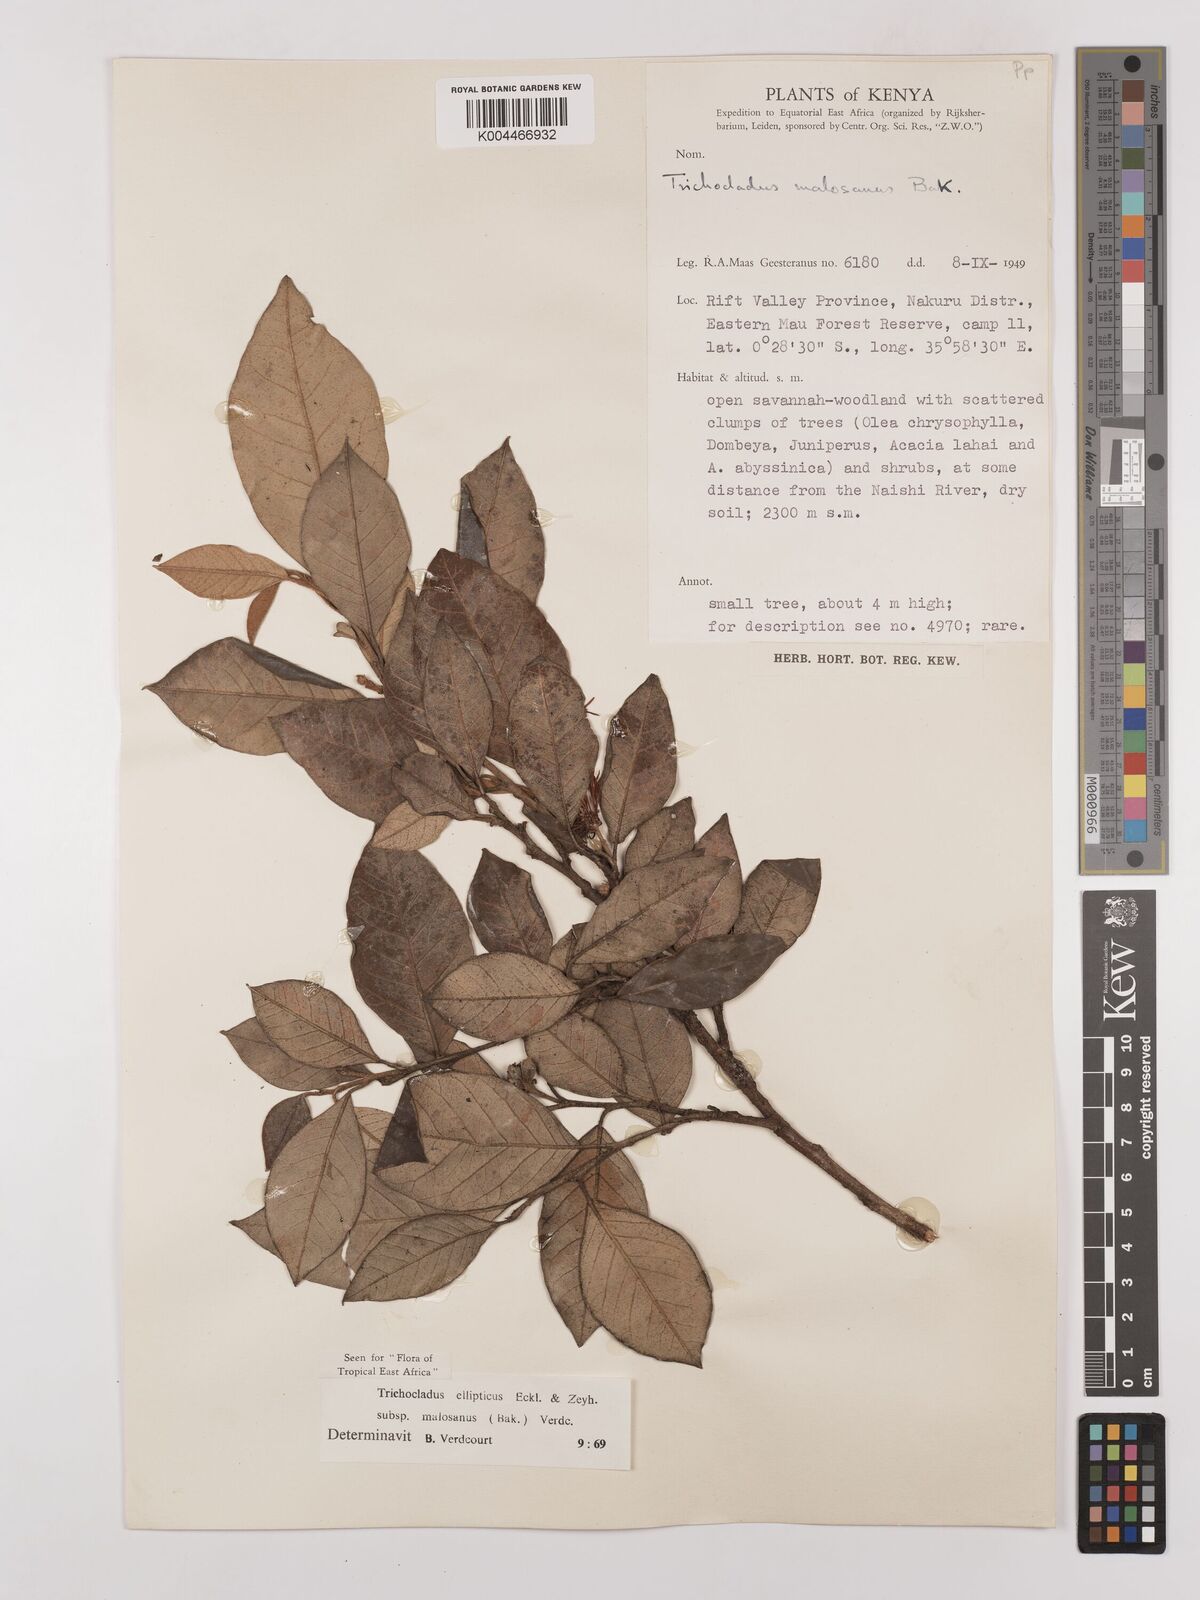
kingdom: Plantae
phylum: Tracheophyta
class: Magnoliopsida
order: Saxifragales
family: Hamamelidaceae
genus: Trichocladus
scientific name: Trichocladus ellipticus
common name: White witch-hazel
